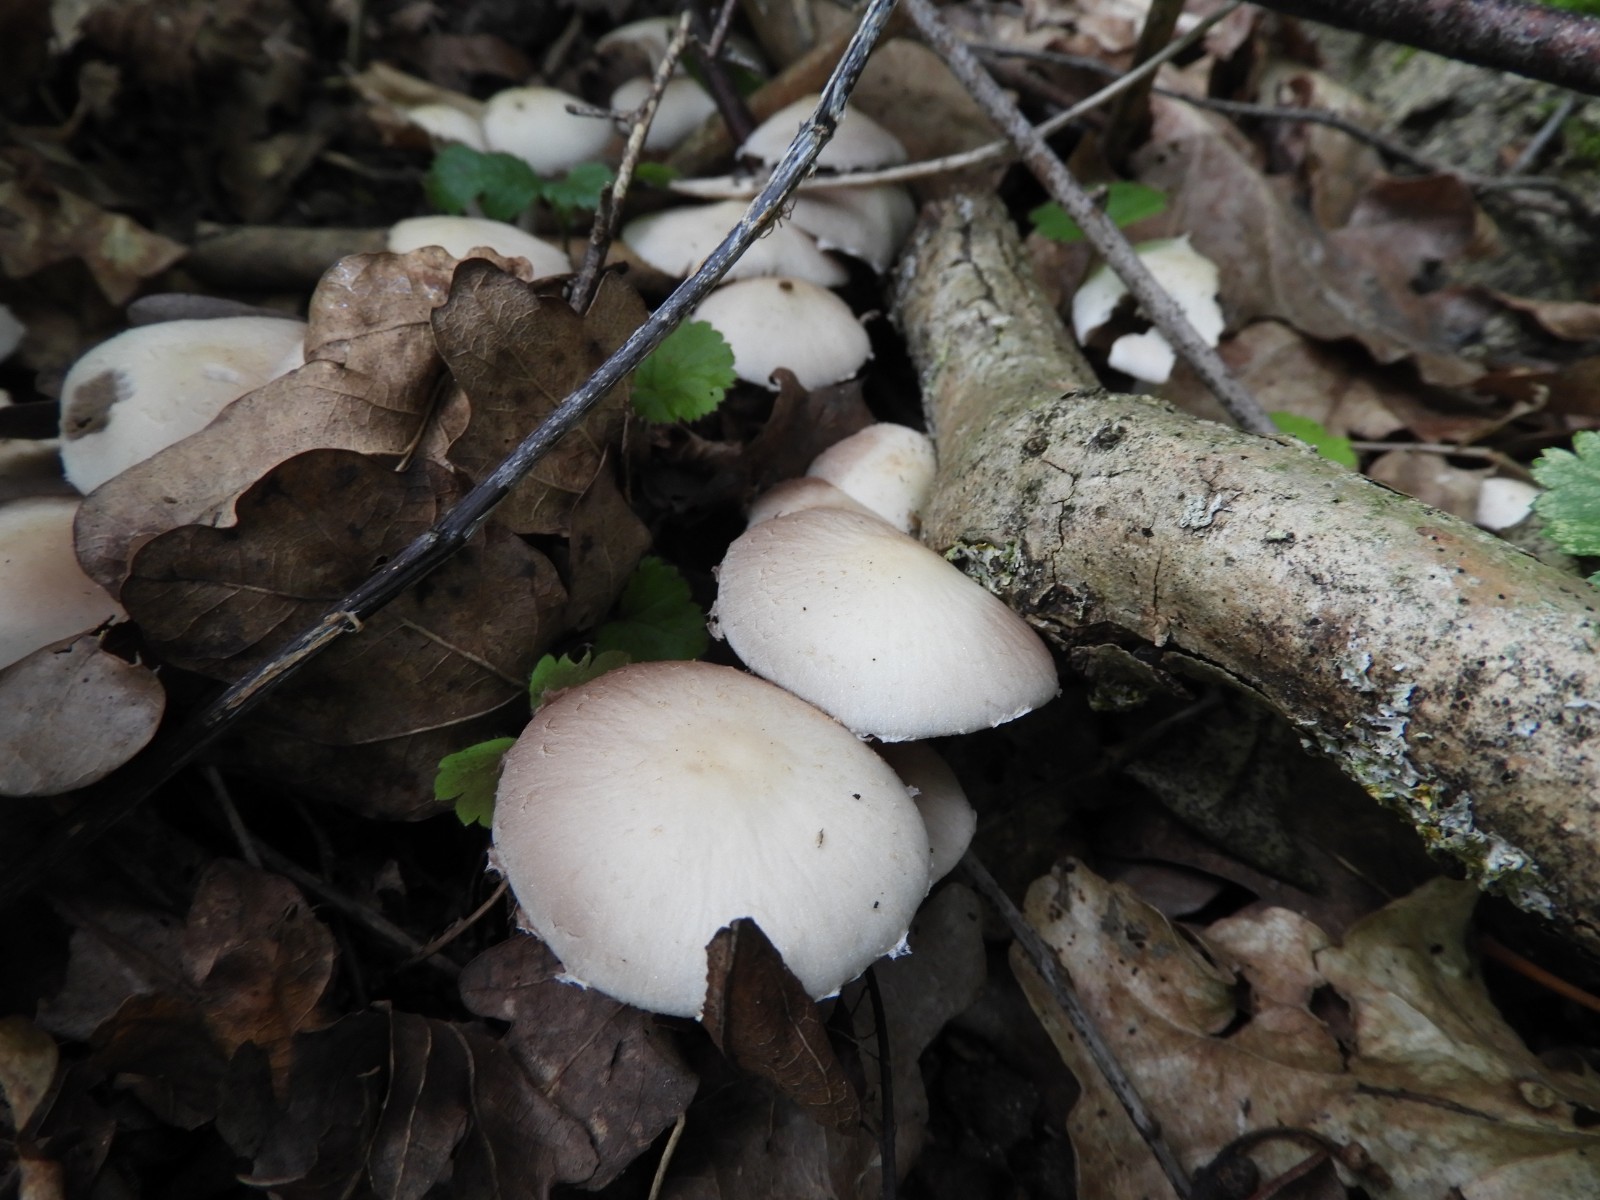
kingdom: Fungi
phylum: Basidiomycota
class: Agaricomycetes
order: Agaricales
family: Psathyrellaceae
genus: Candolleomyces
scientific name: Candolleomyces candolleanus
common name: Candolles mørkhat
